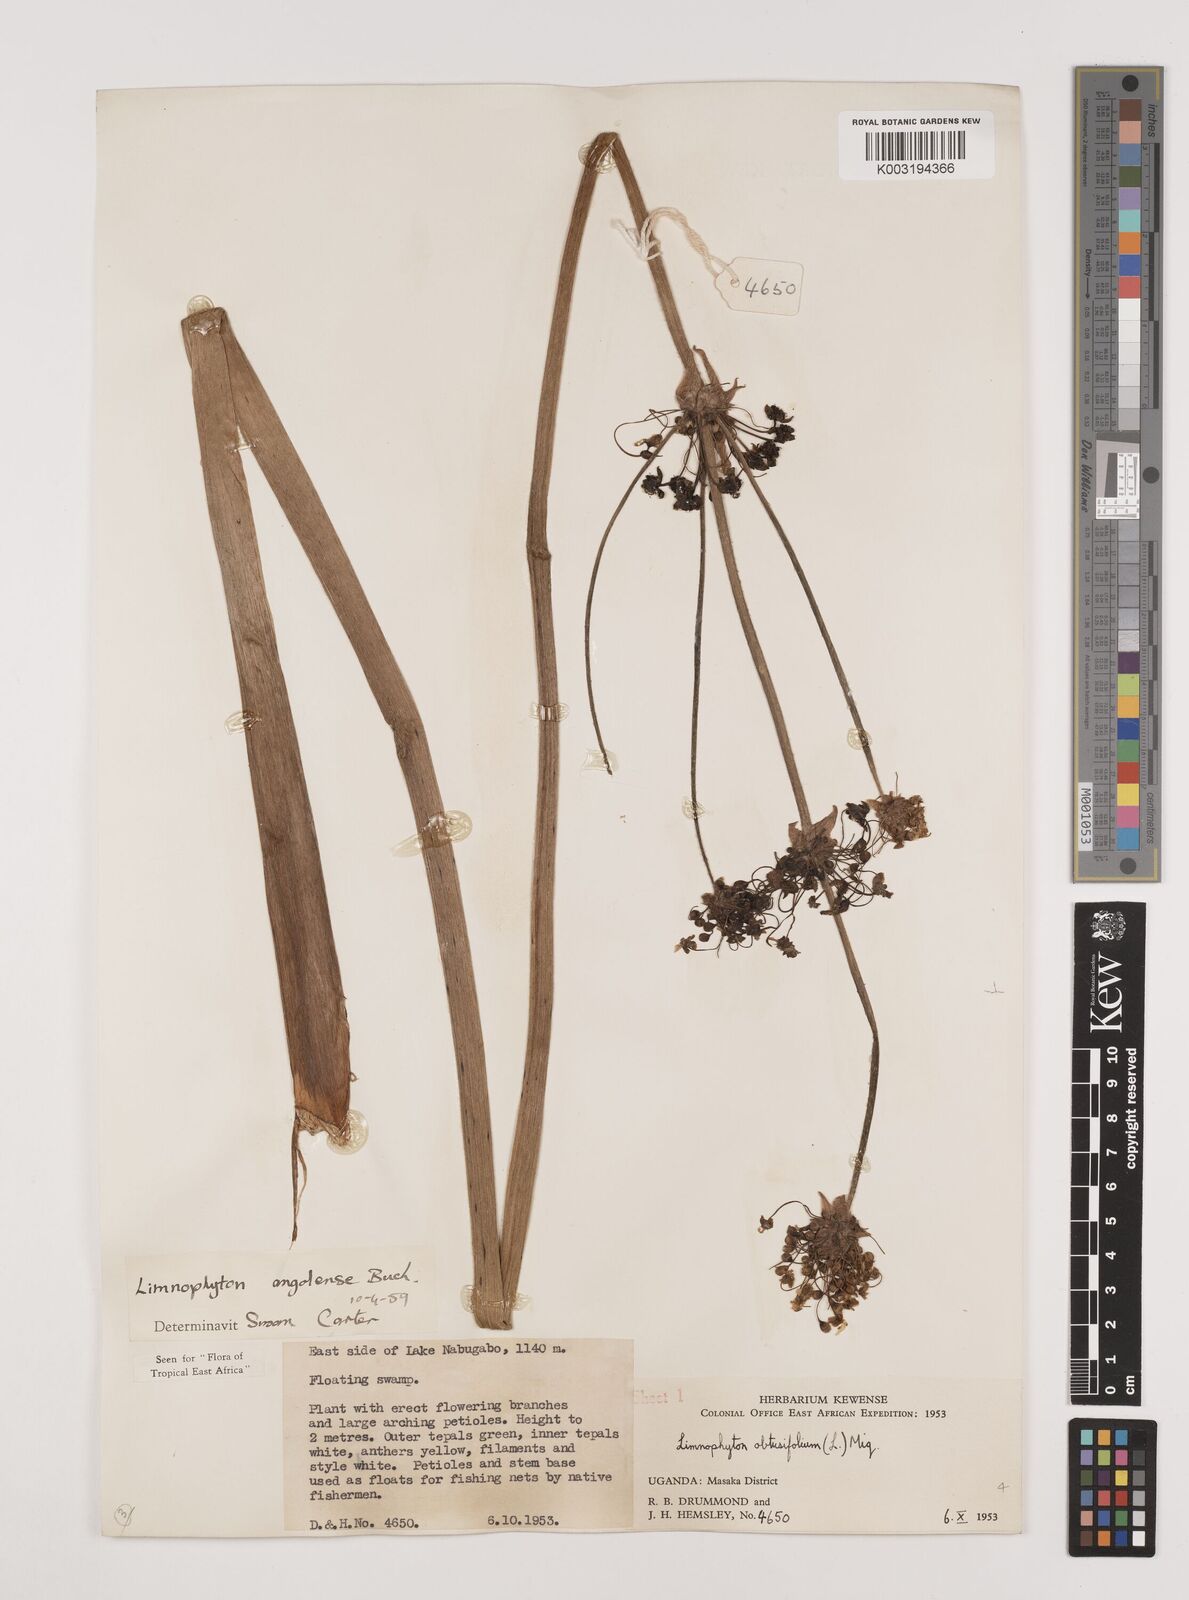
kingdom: Plantae
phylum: Tracheophyta
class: Liliopsida
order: Alismatales
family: Alismataceae
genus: Limnophyton
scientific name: Limnophyton angolense
